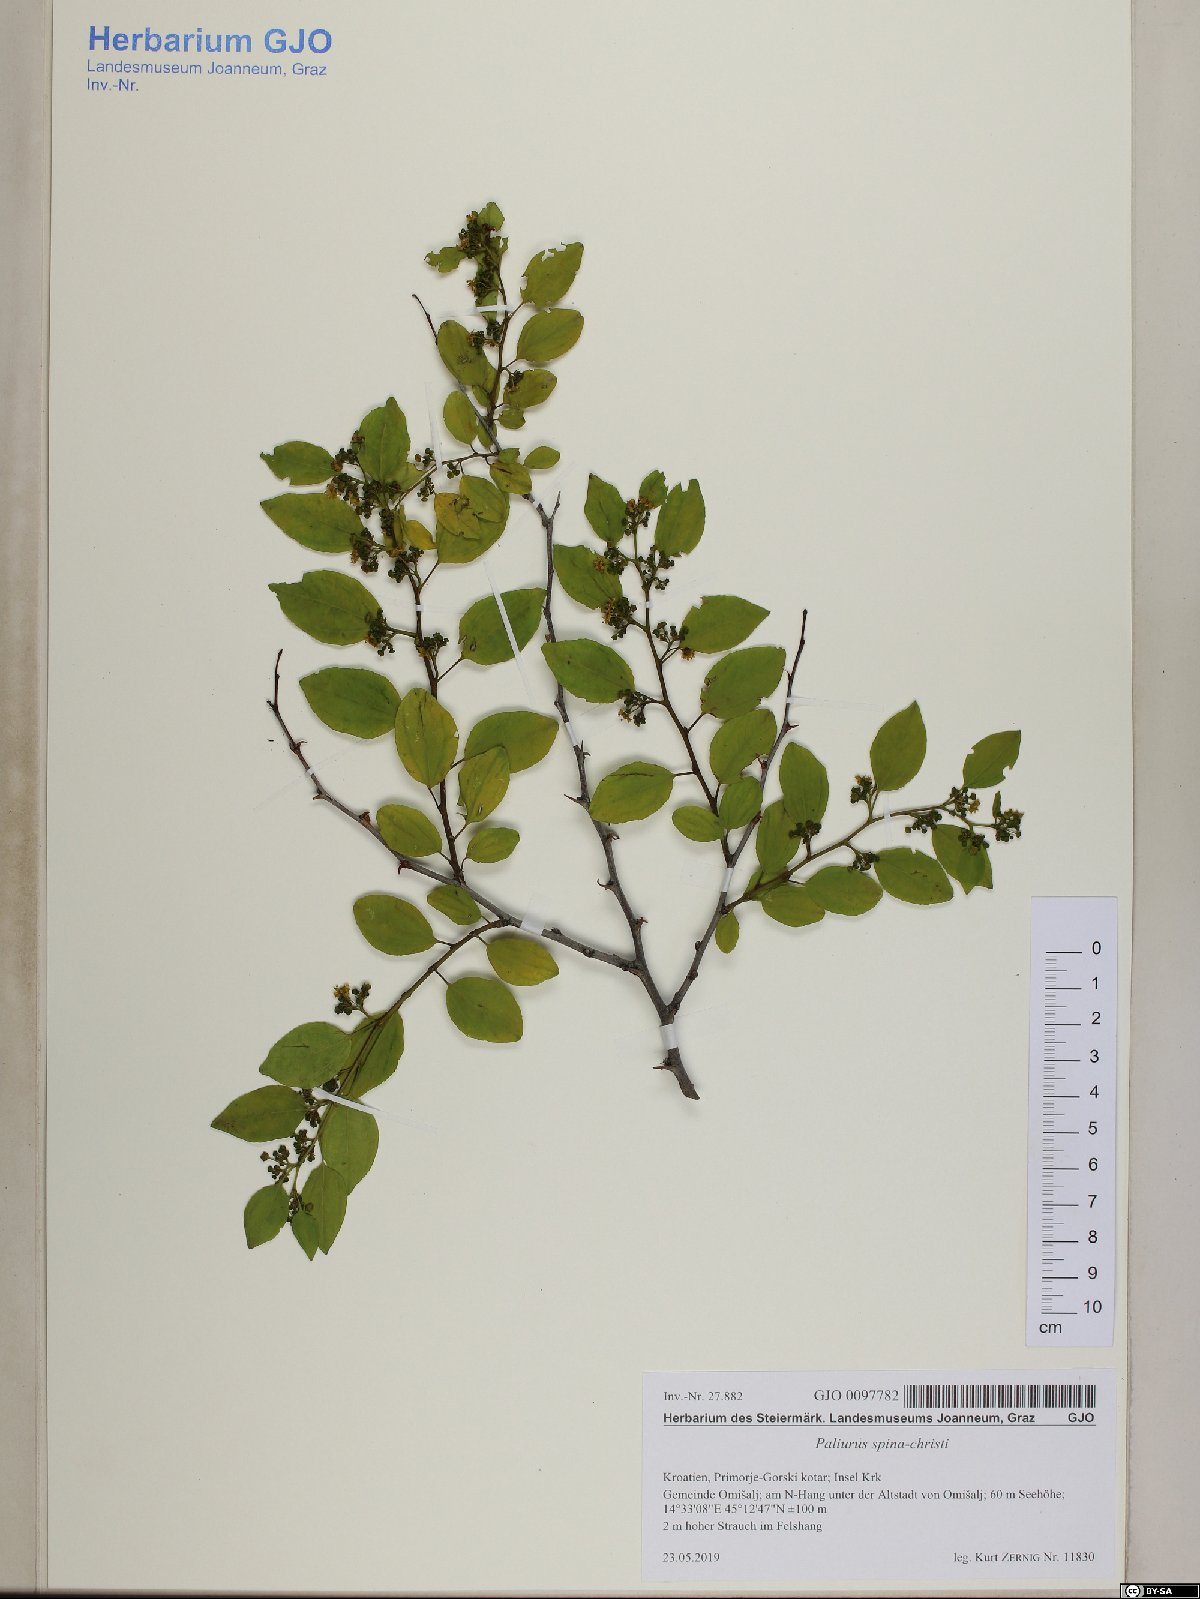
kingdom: Plantae
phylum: Tracheophyta
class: Magnoliopsida
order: Rosales
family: Rhamnaceae
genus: Paliurus
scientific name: Paliurus spina-christi
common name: Jeruselem thorn
